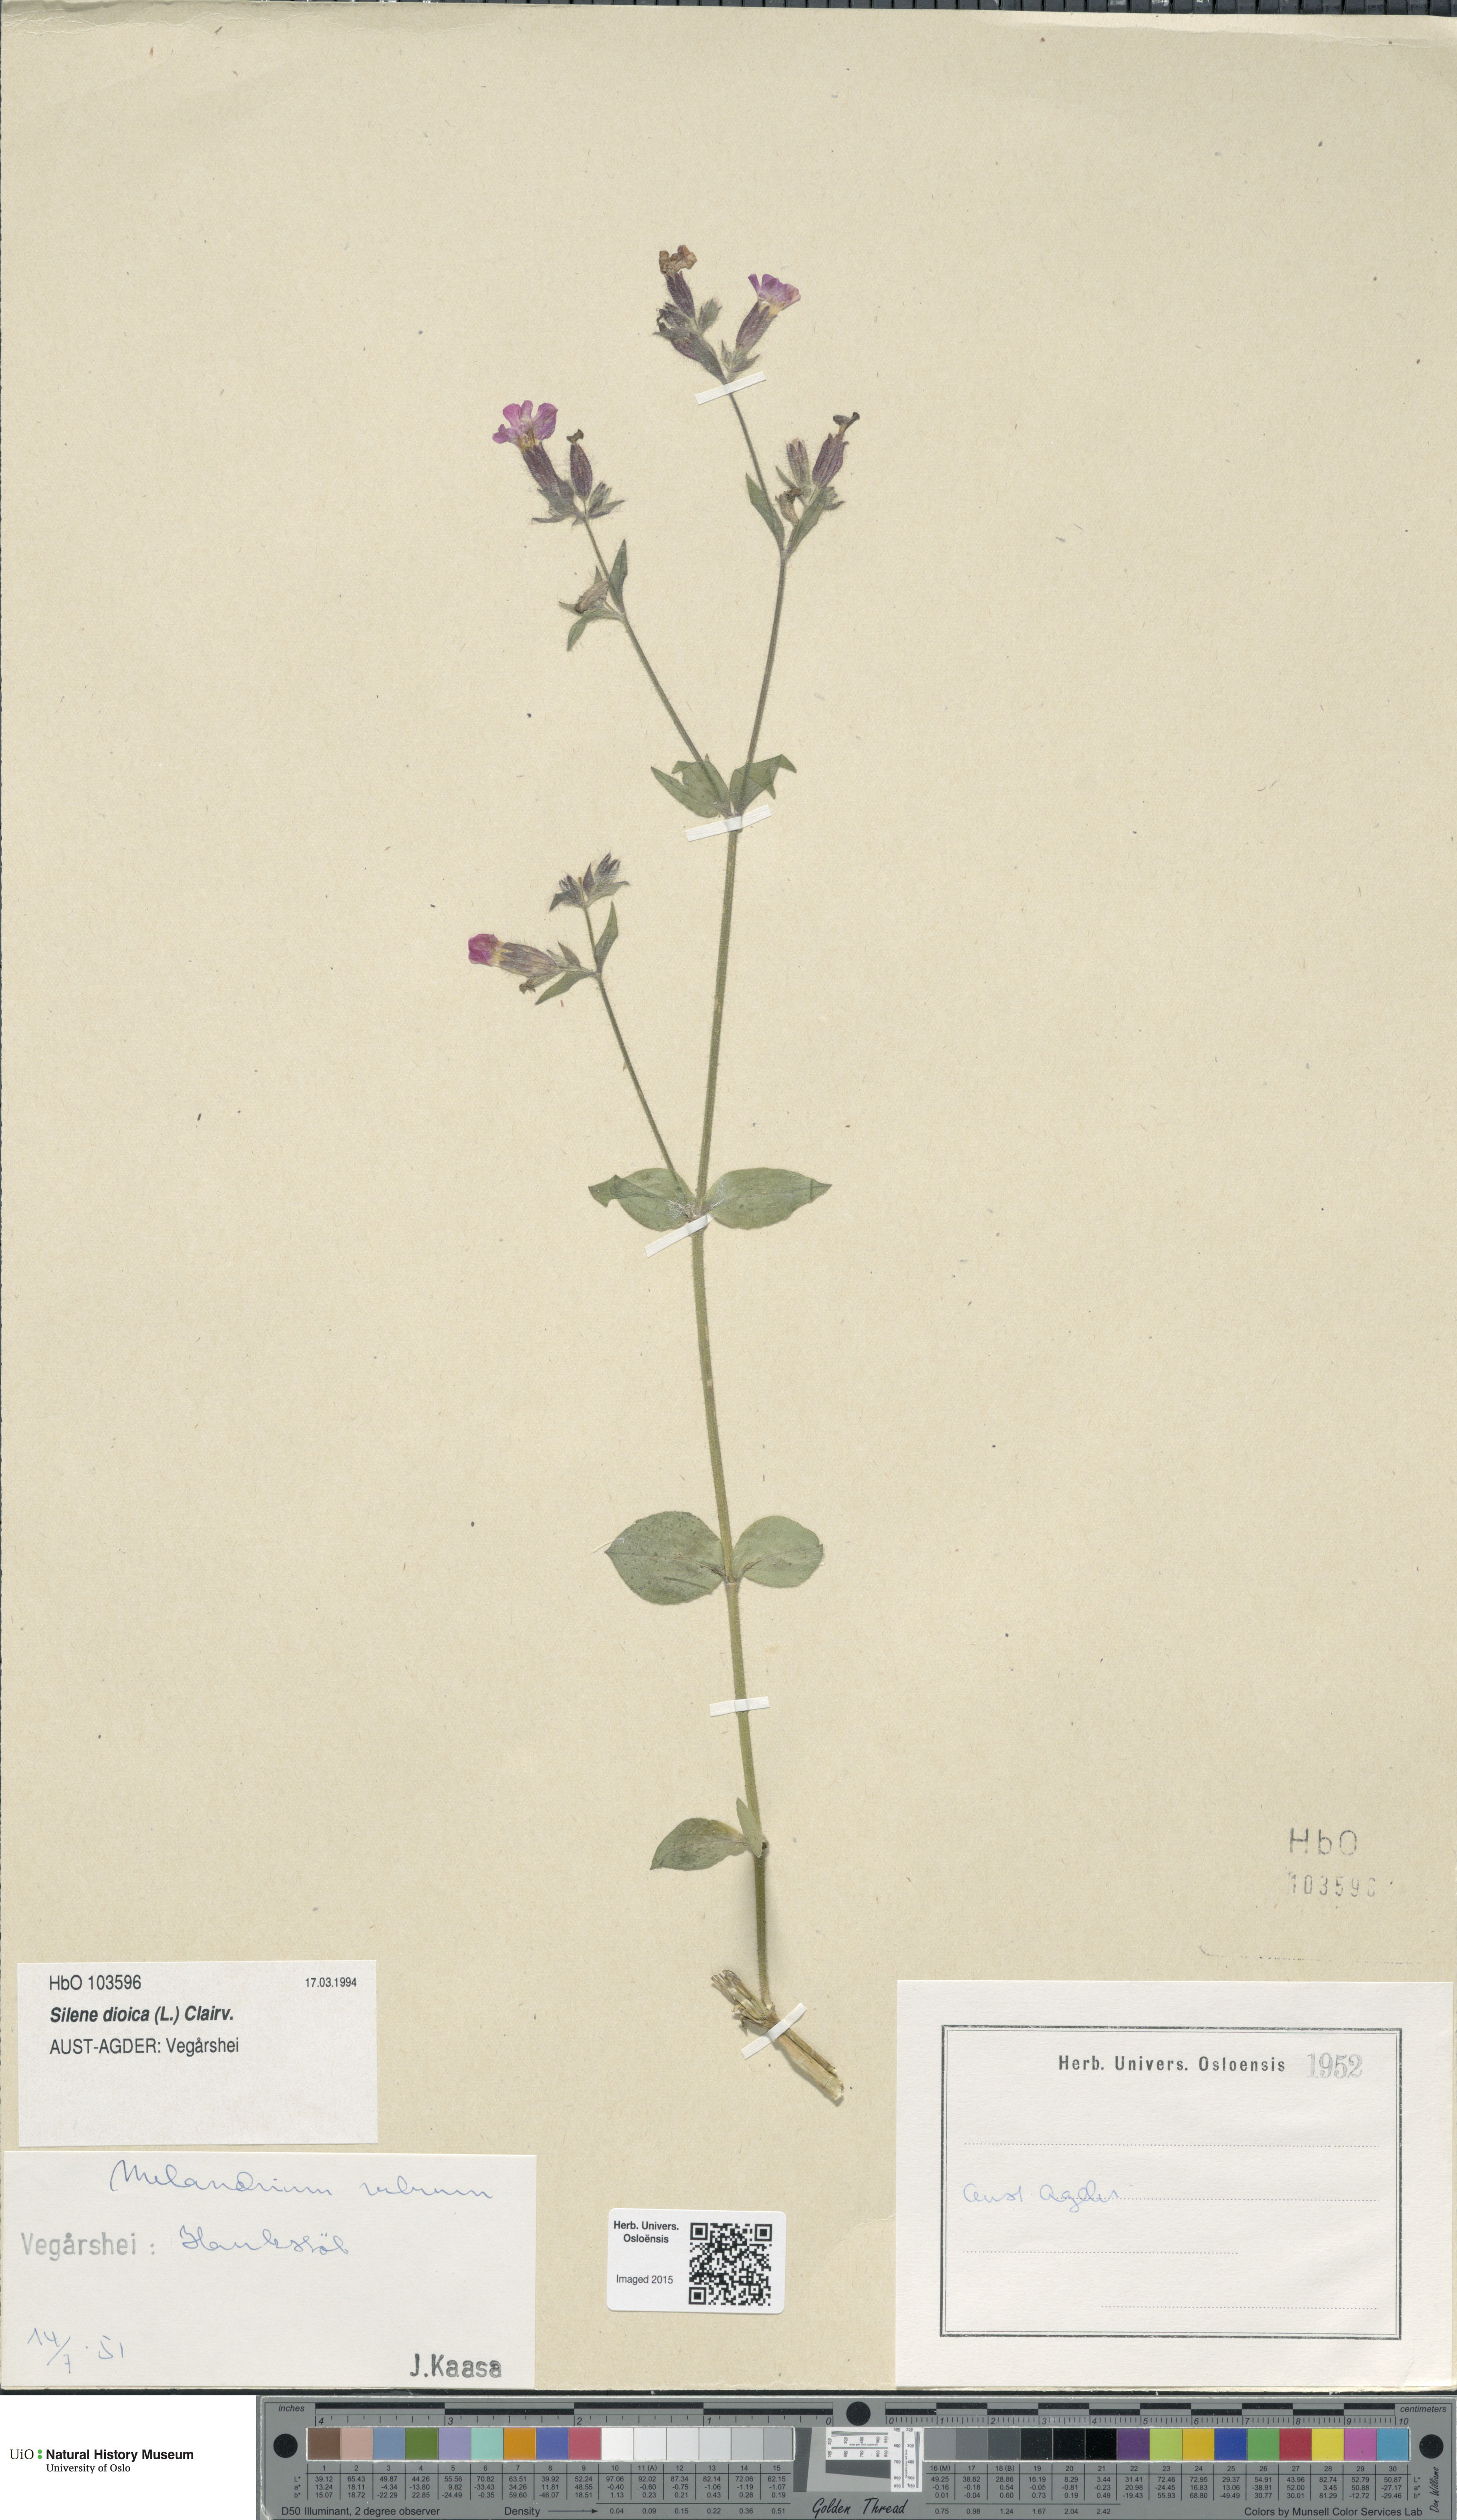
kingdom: Plantae
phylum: Tracheophyta
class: Magnoliopsida
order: Caryophyllales
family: Caryophyllaceae
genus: Silene
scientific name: Silene dioica
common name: Red campion
